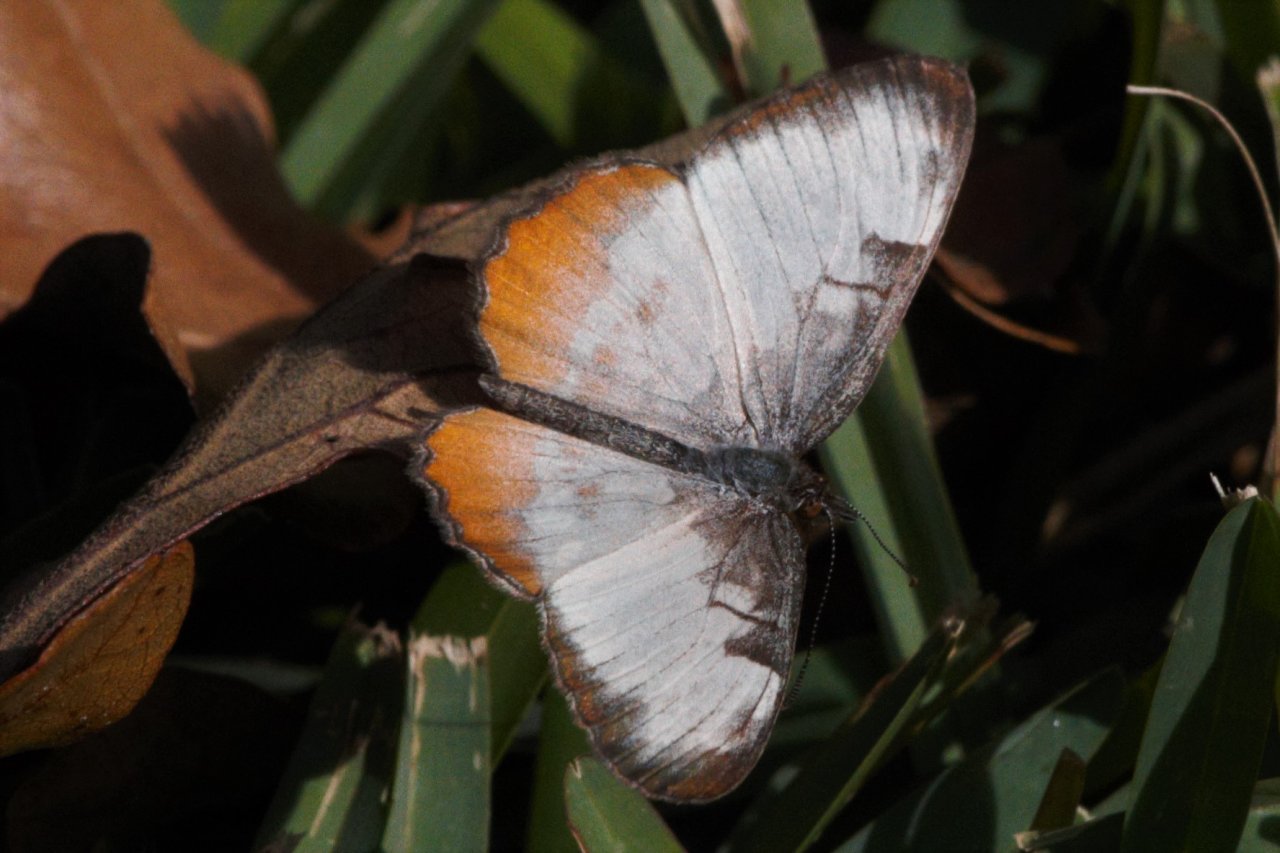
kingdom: Animalia
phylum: Arthropoda
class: Insecta
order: Lepidoptera
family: Nymphalidae
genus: Mestra
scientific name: Mestra amymone
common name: Common Mestra
